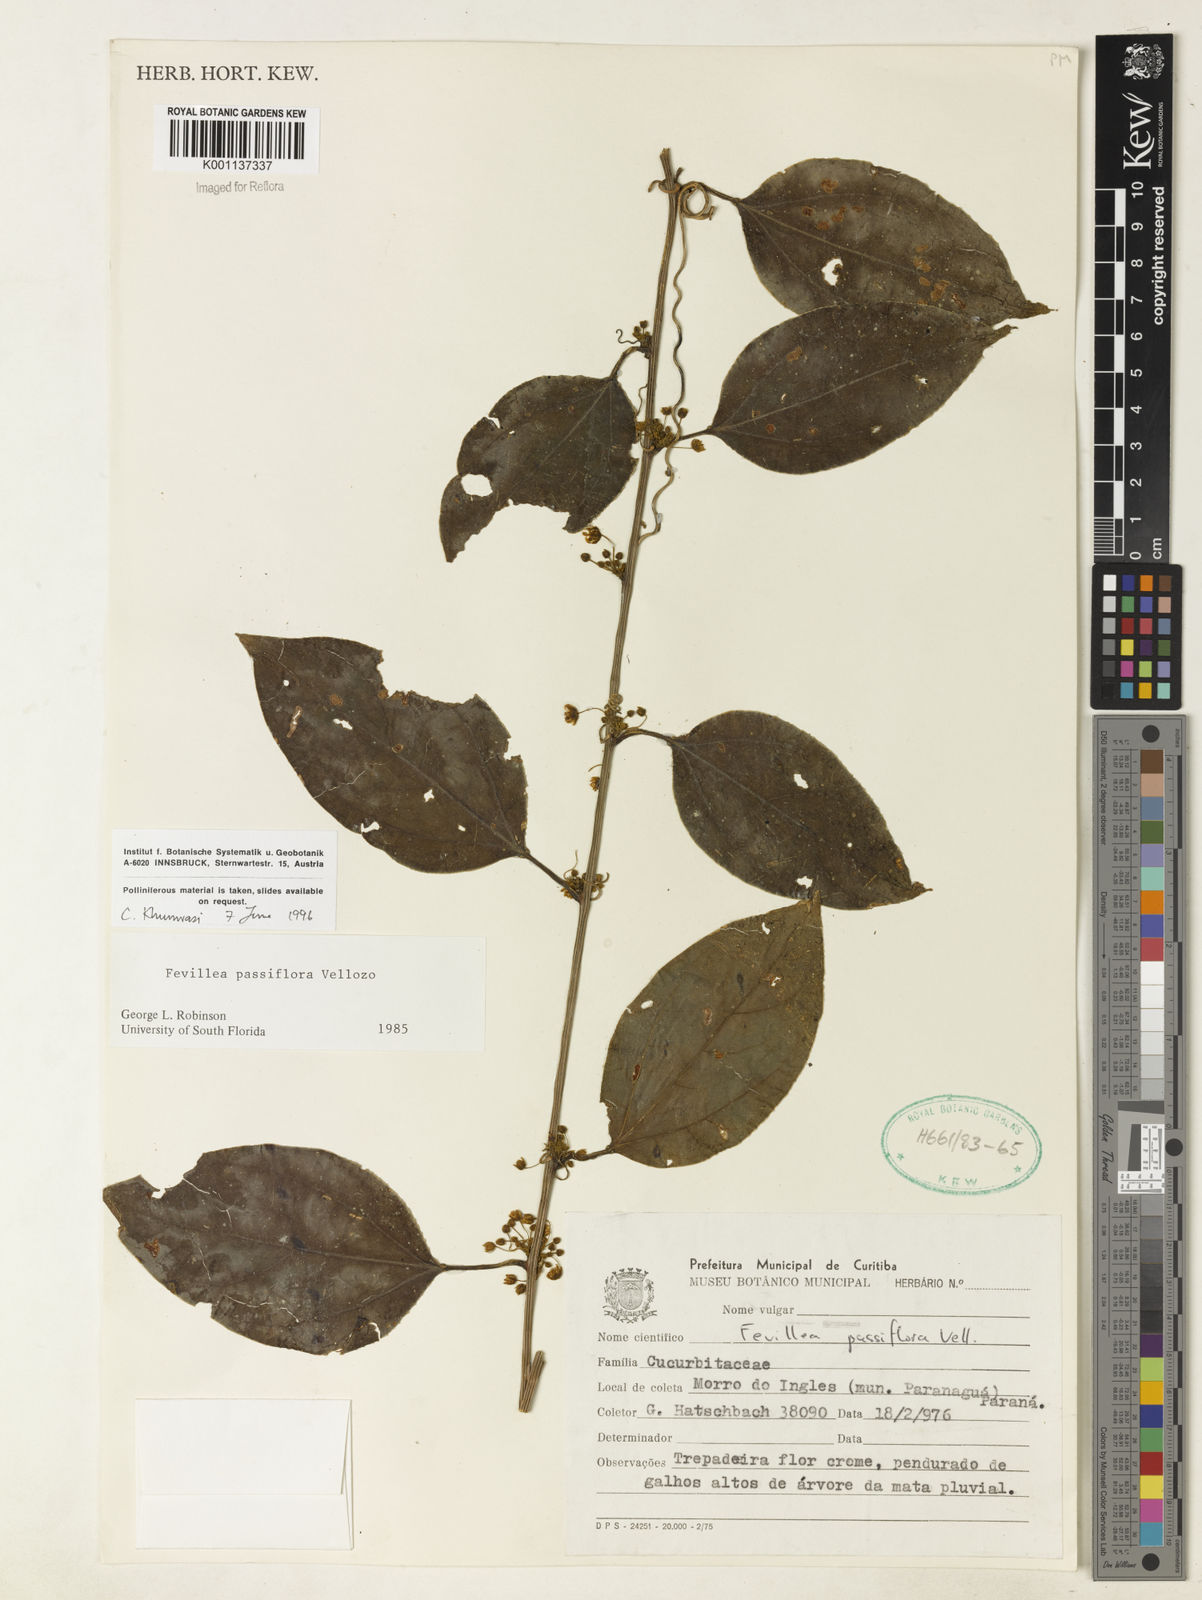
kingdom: Plantae
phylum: Tracheophyta
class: Magnoliopsida
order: Cucurbitales
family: Cucurbitaceae
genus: Anisosperma
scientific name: Anisosperma passiflora
